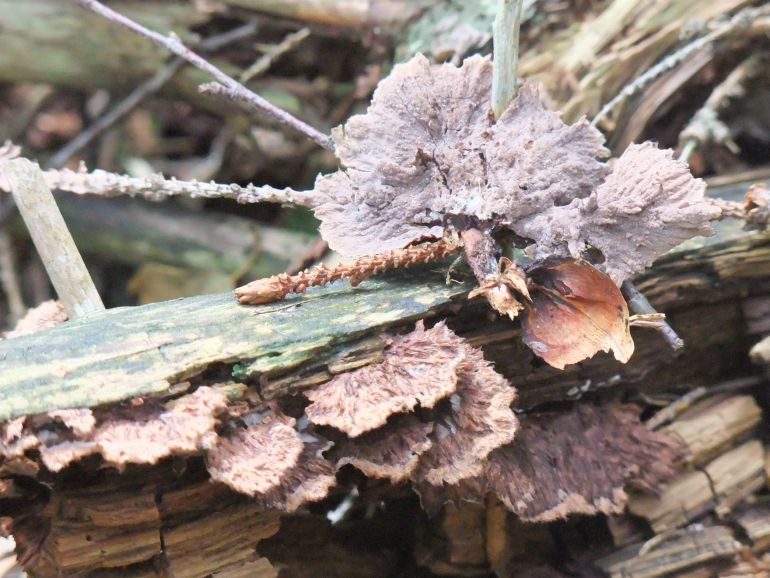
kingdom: Fungi
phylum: Basidiomycota
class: Agaricomycetes
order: Thelephorales
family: Thelephoraceae
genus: Thelephora
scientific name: Thelephora terrestris
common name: fliget frynsesvamp
